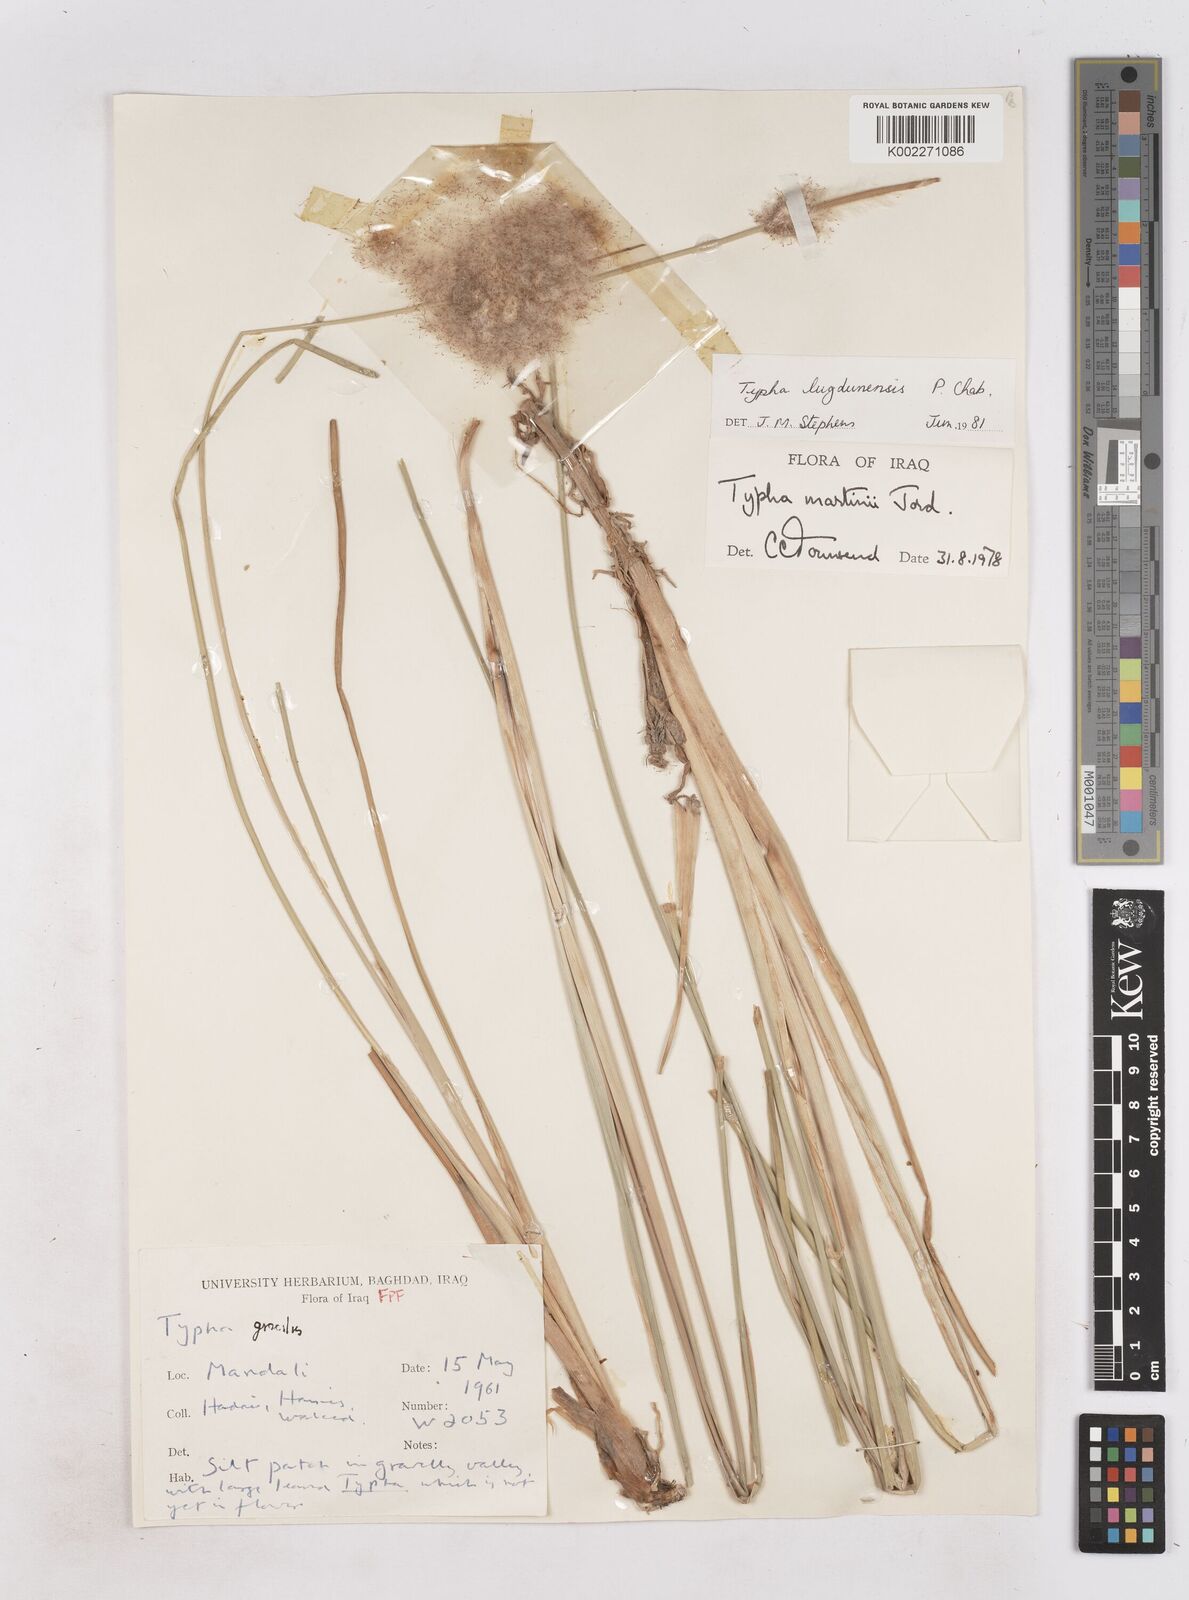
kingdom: Plantae
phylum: Tracheophyta
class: Liliopsida
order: Poales
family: Typhaceae
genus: Typha
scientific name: Typha lugdunensis
